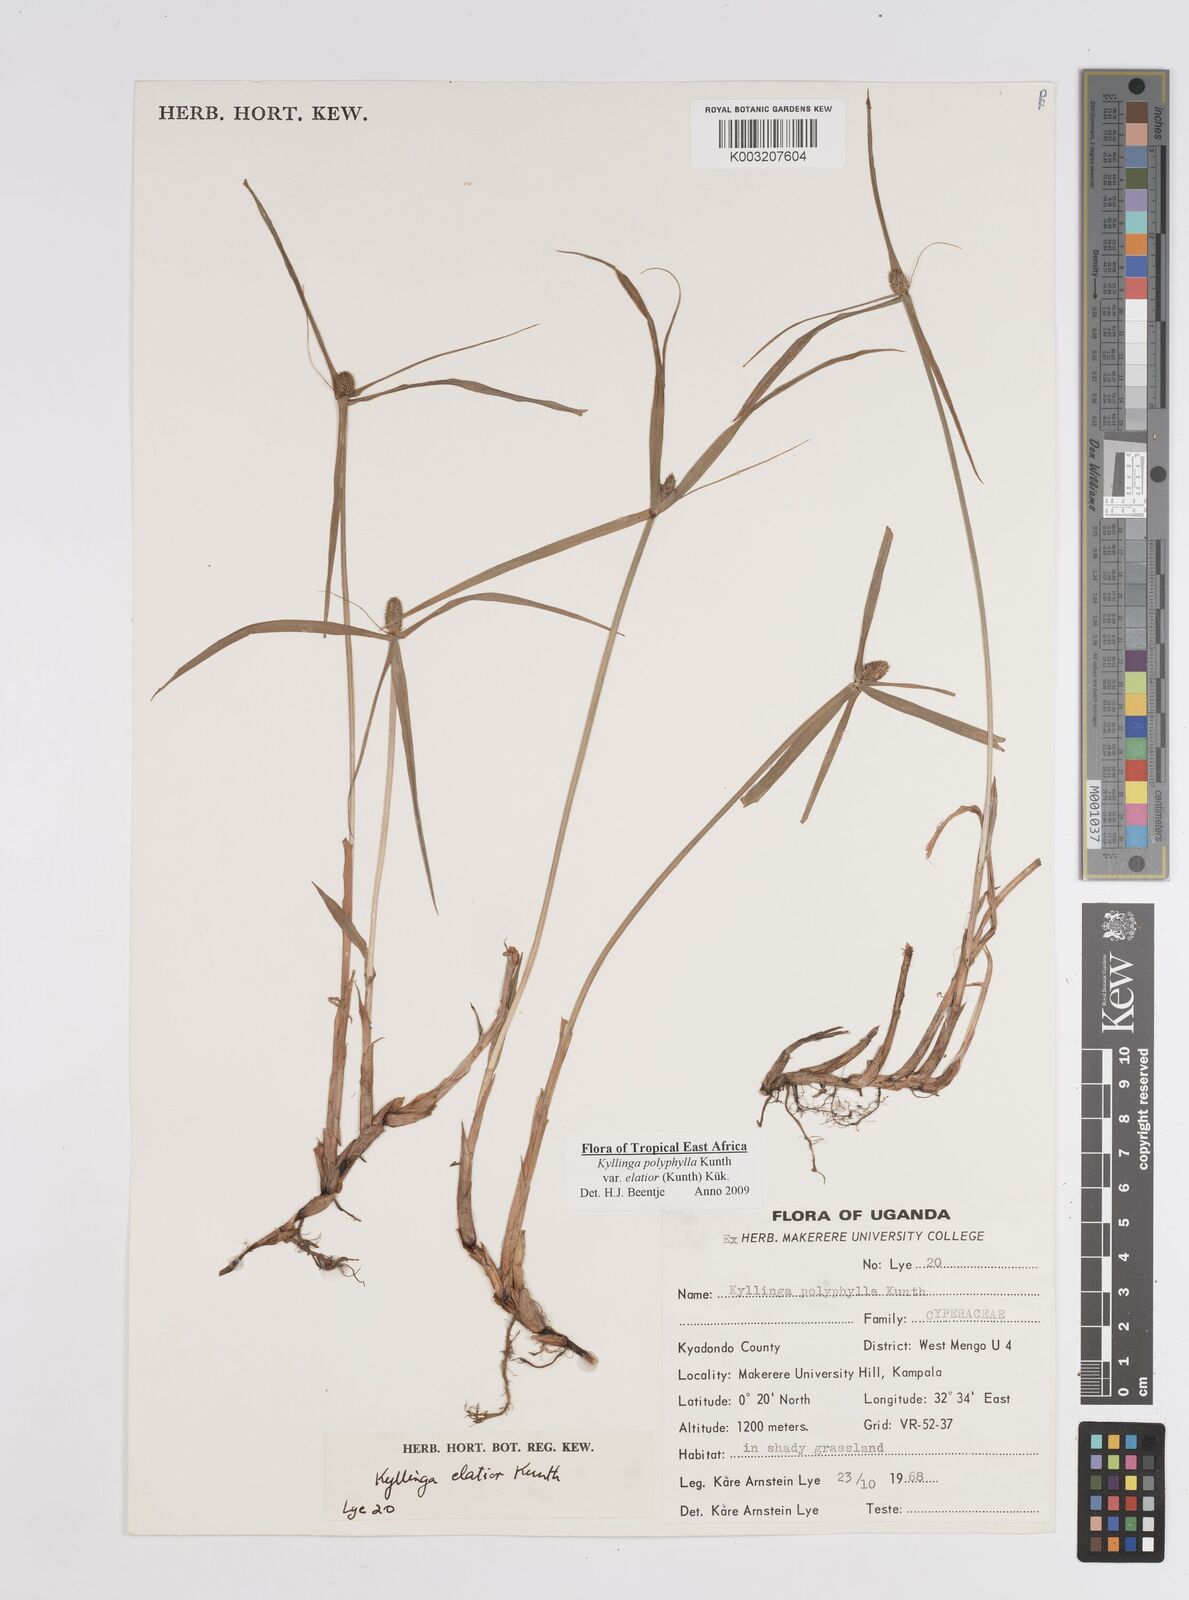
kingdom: Plantae
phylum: Tracheophyta
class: Liliopsida
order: Poales
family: Cyperaceae
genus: Cyperus
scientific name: Cyperus
